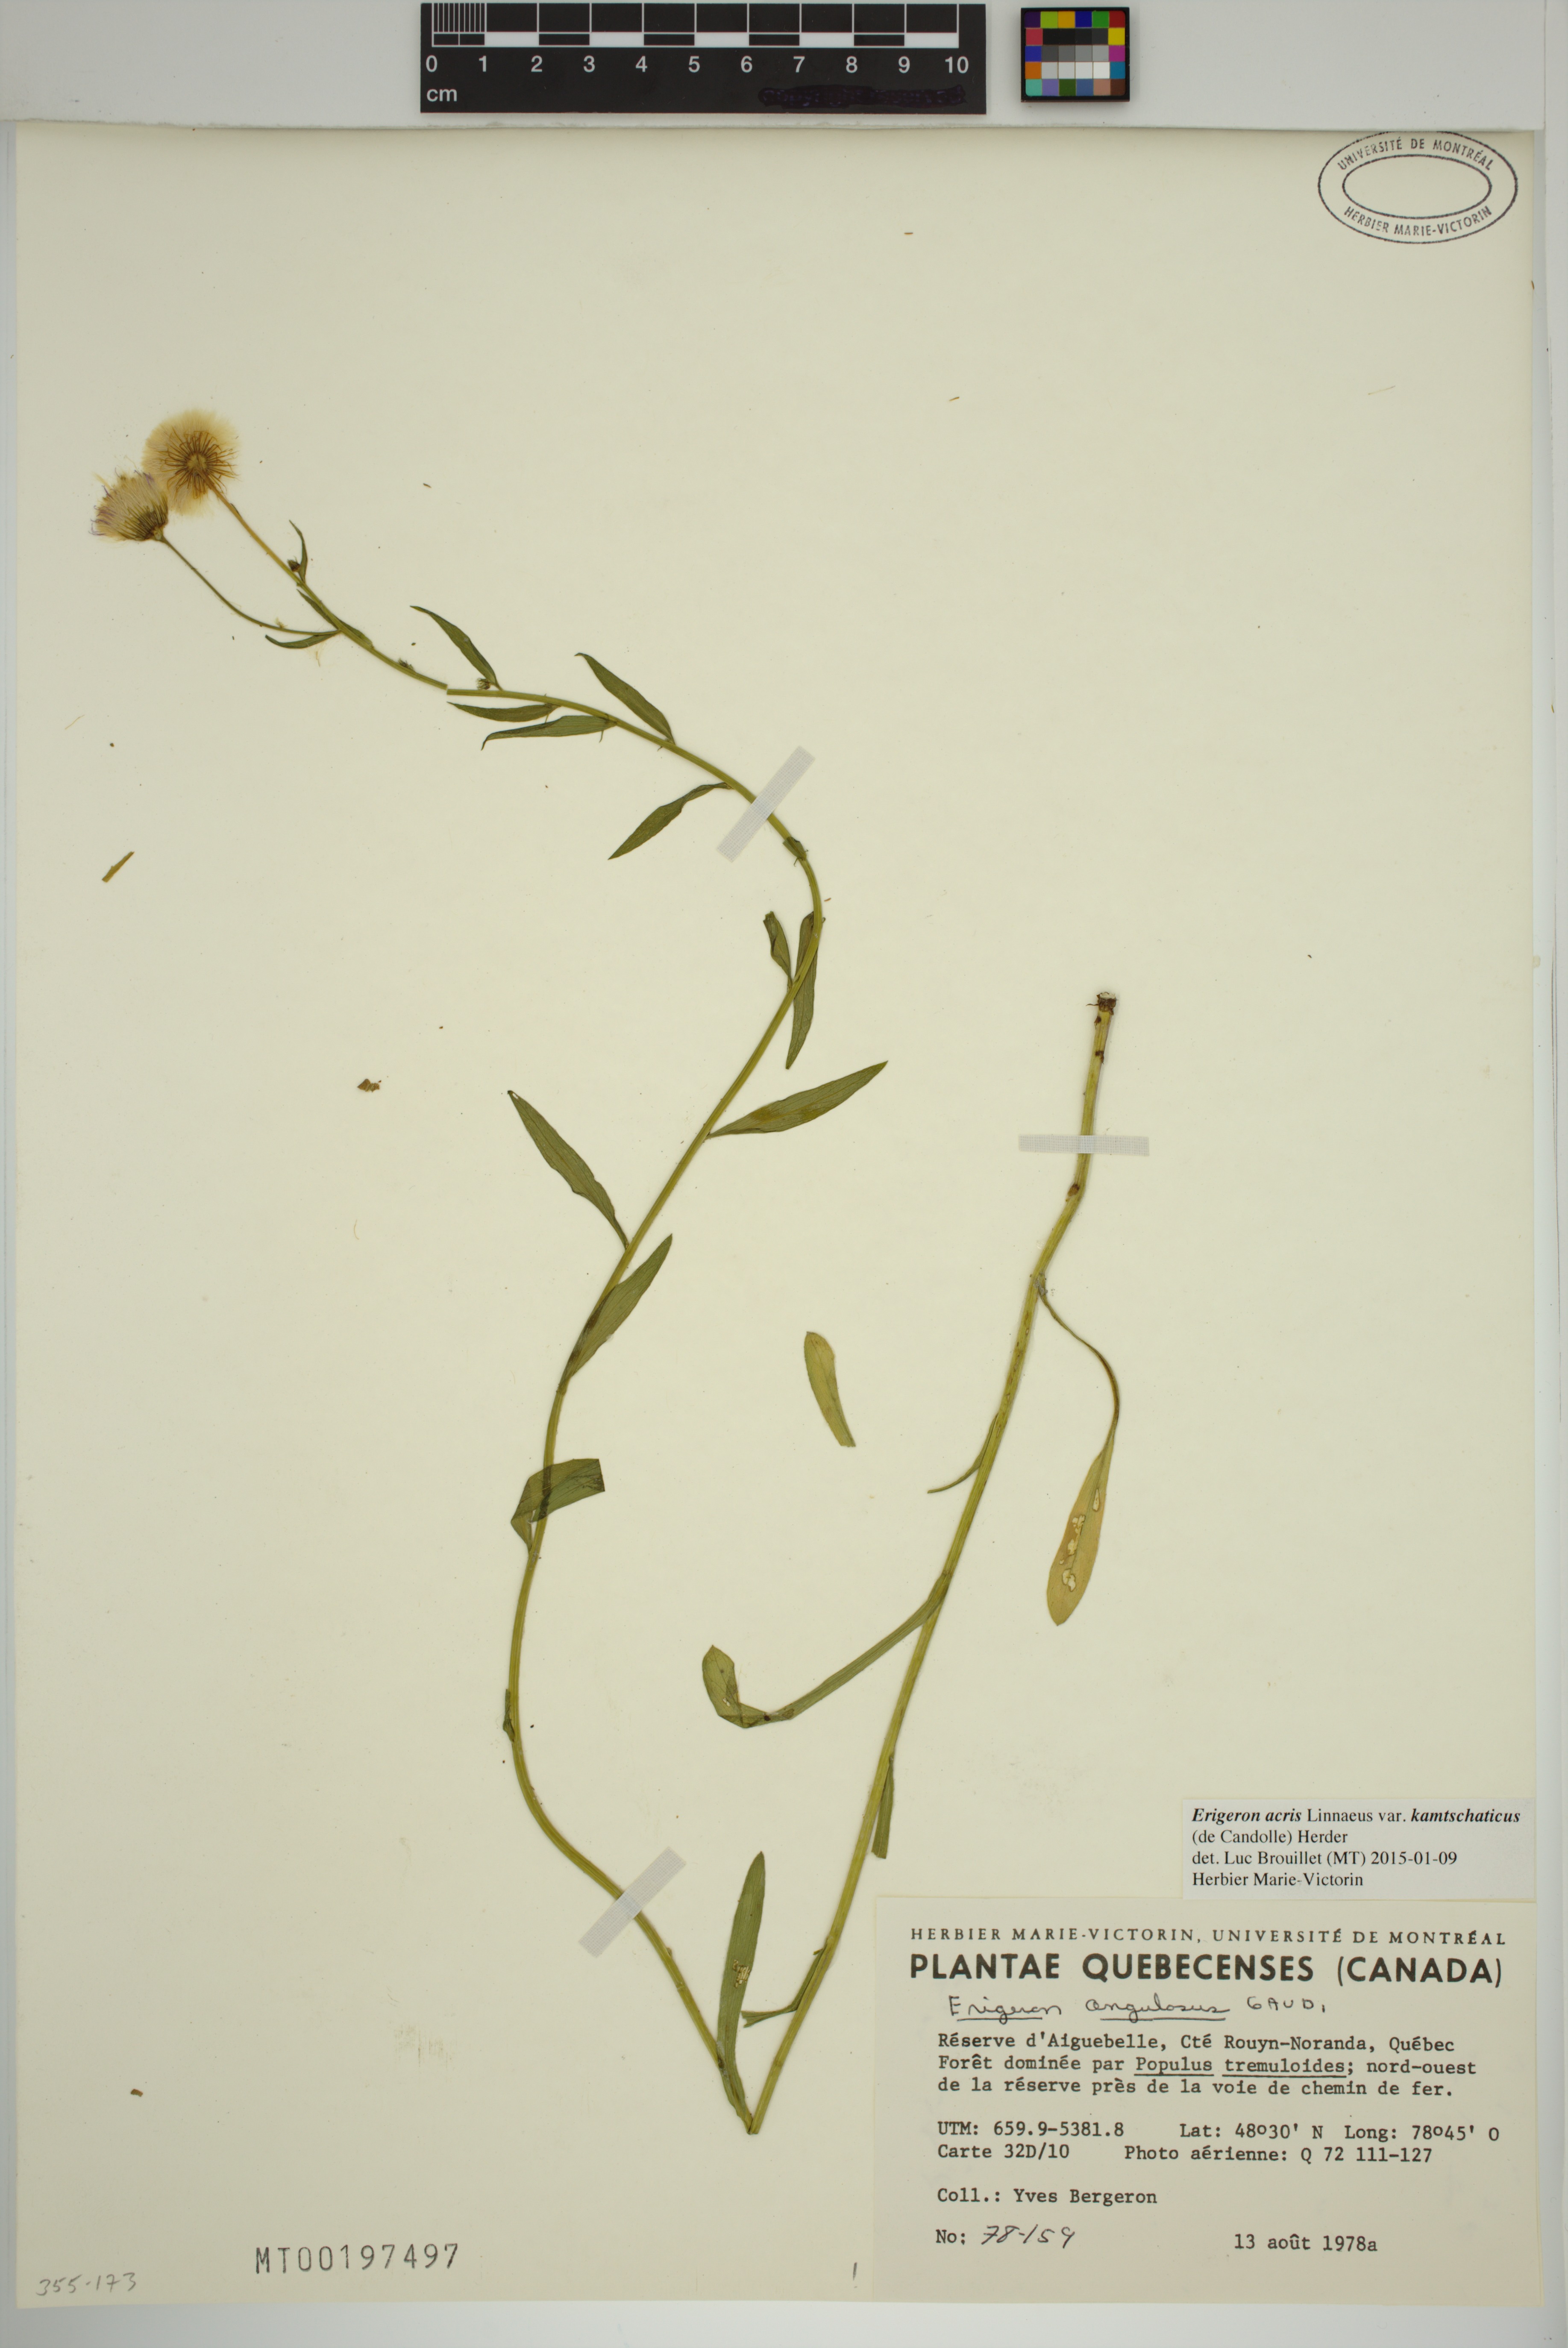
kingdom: Plantae
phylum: Tracheophyta
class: Magnoliopsida
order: Asterales
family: Asteraceae
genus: Erigeron
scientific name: Erigeron kamtschaticus
